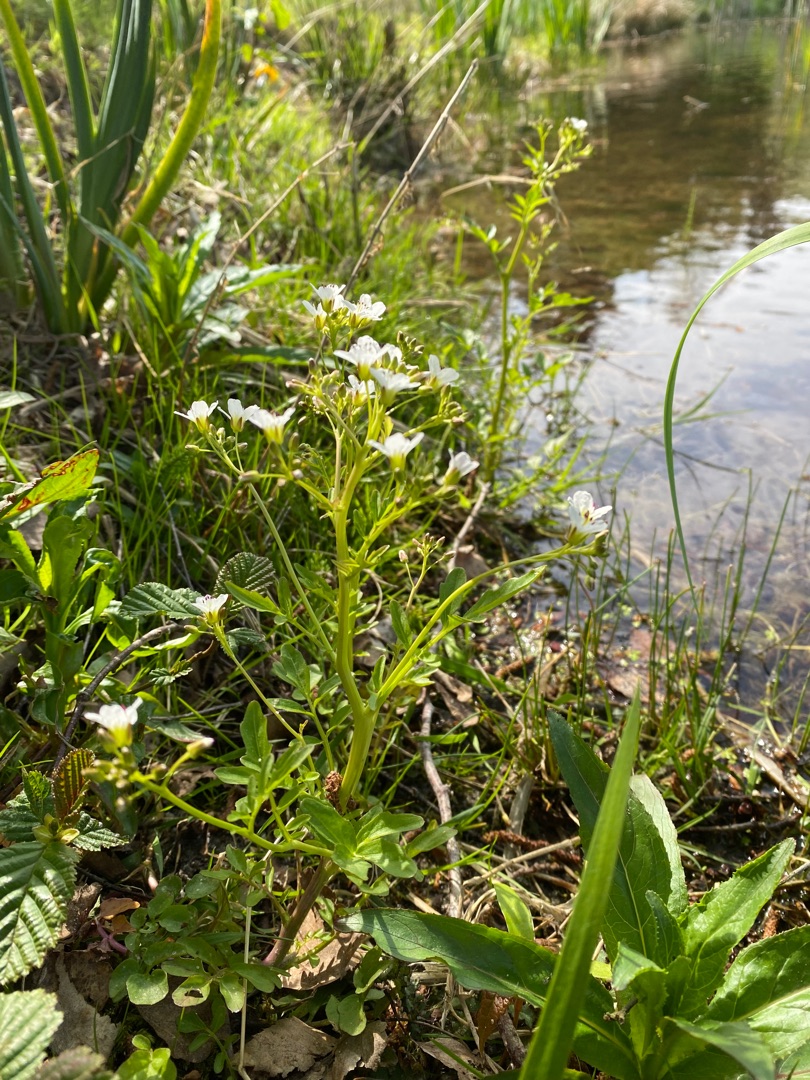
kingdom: Plantae
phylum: Tracheophyta
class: Magnoliopsida
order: Brassicales
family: Brassicaceae
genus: Cardamine
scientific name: Cardamine amara
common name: Vandkarse
